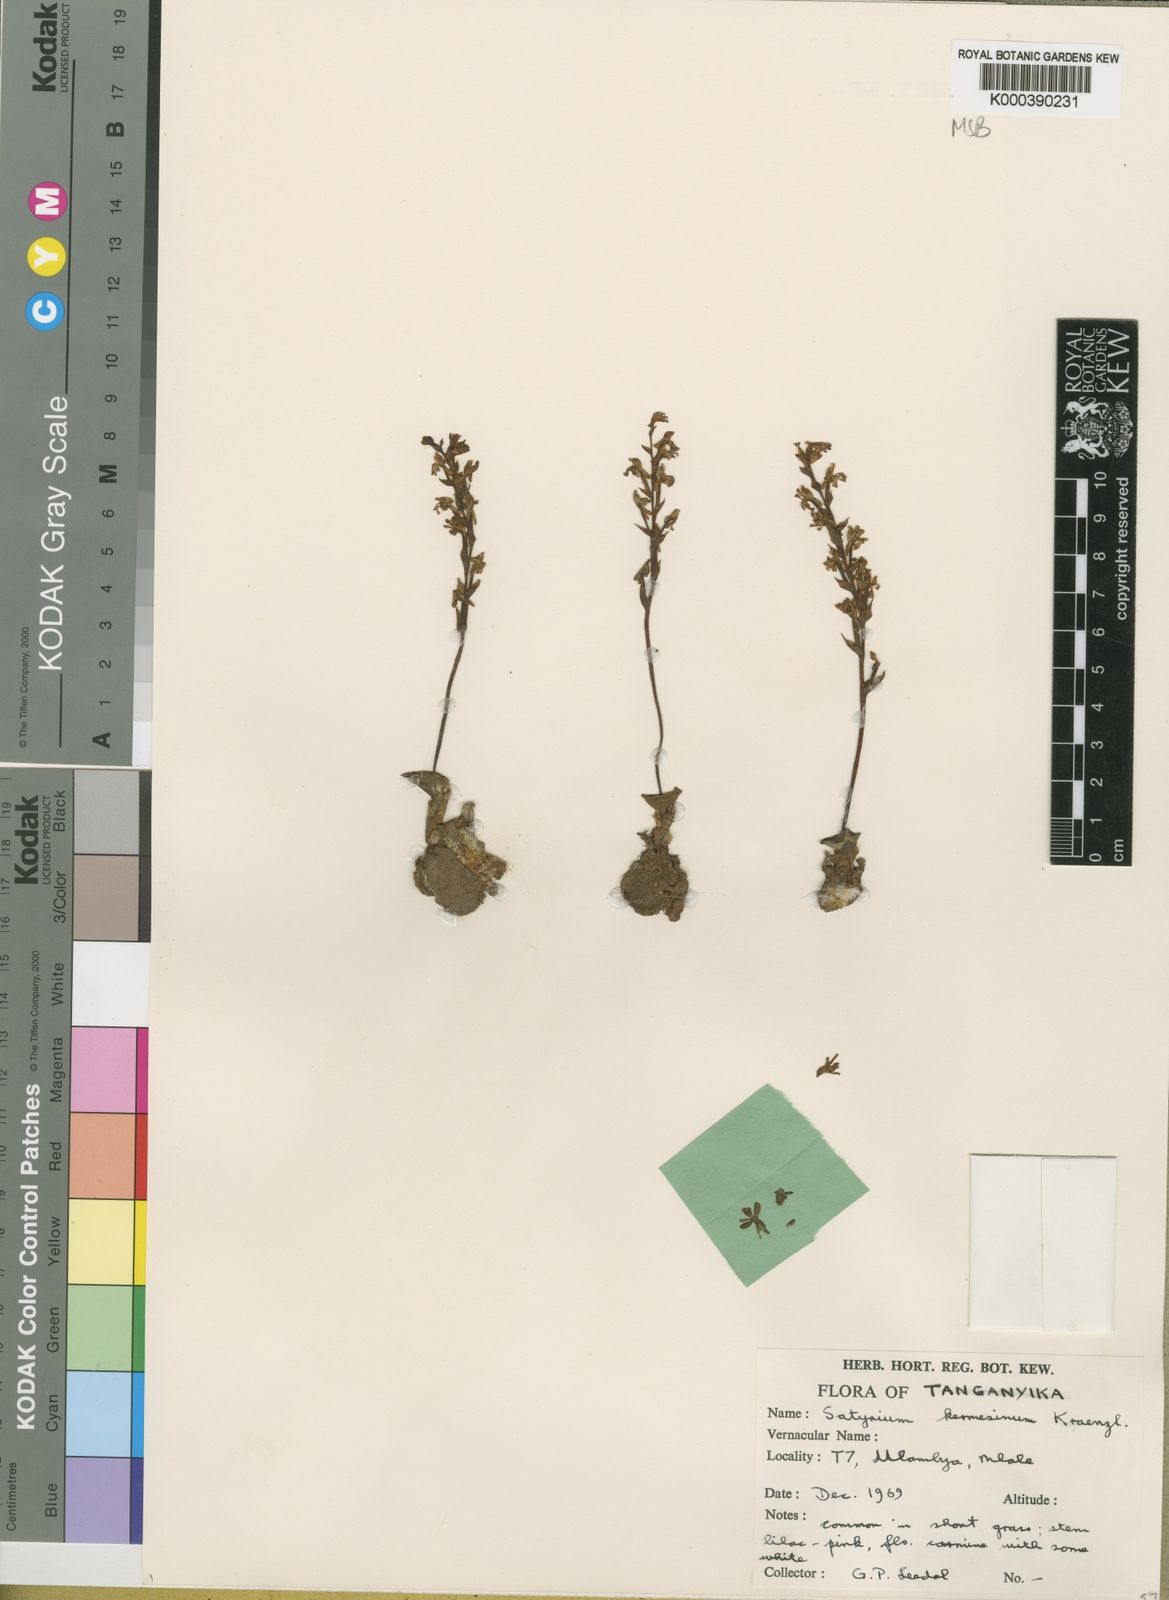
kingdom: Plantae
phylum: Tracheophyta
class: Liliopsida
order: Asparagales
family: Orchidaceae
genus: Satyrium
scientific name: Satyrium kermesinum
